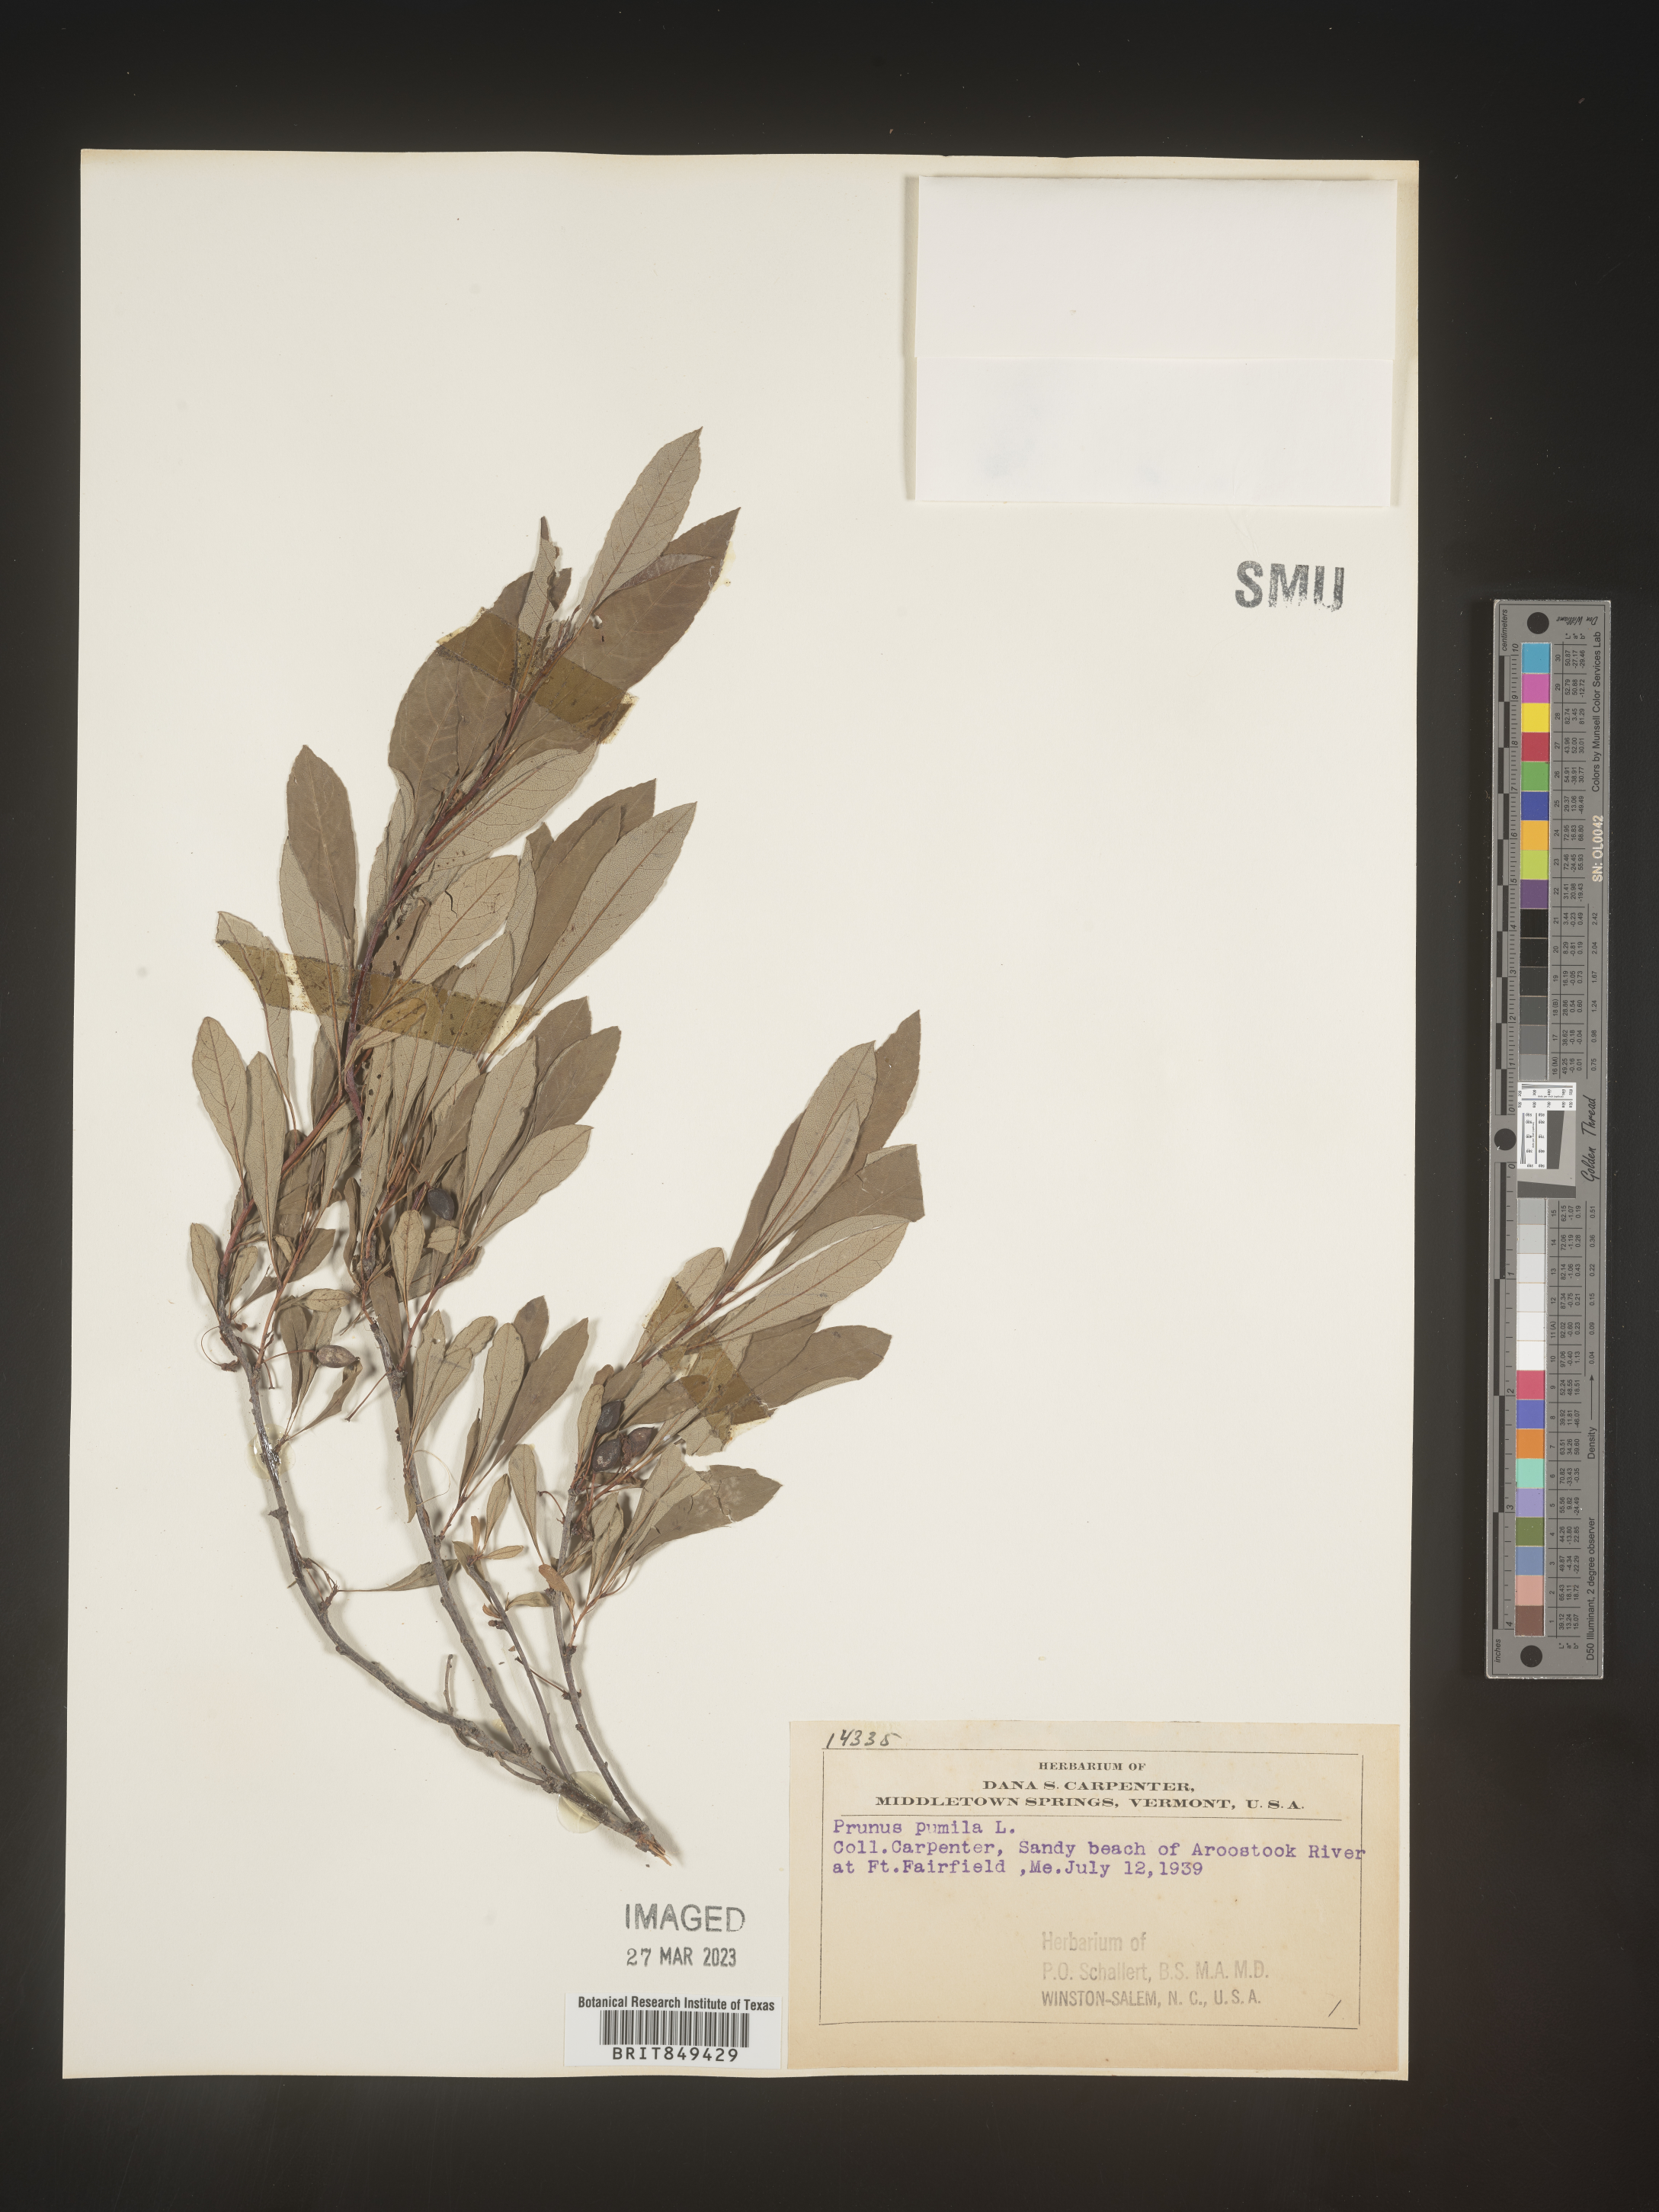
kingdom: Plantae
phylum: Tracheophyta
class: Magnoliopsida
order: Rosales
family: Rosaceae
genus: Prunus
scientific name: Prunus pumila
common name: Dwarf cherry
